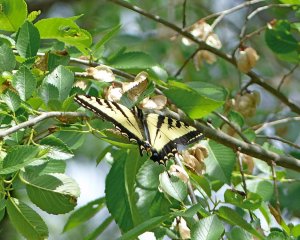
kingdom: Animalia
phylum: Arthropoda
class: Insecta
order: Lepidoptera
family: Papilionidae
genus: Pterourus
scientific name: Pterourus rutulus
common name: Western Tiger Swallowtail
